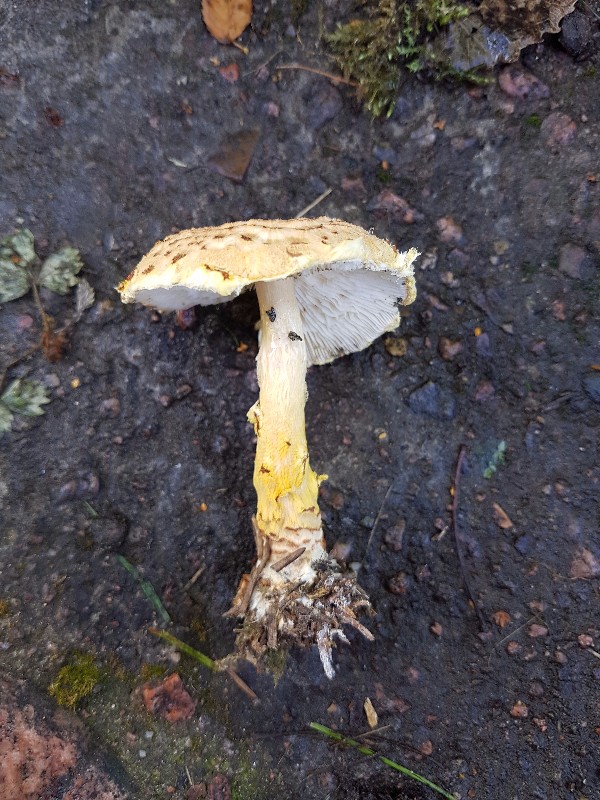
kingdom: Fungi
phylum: Basidiomycota
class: Agaricomycetes
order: Agaricales
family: Agaricaceae
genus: Lepiota
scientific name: Lepiota magnispora
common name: gulfnugget parasolhat
